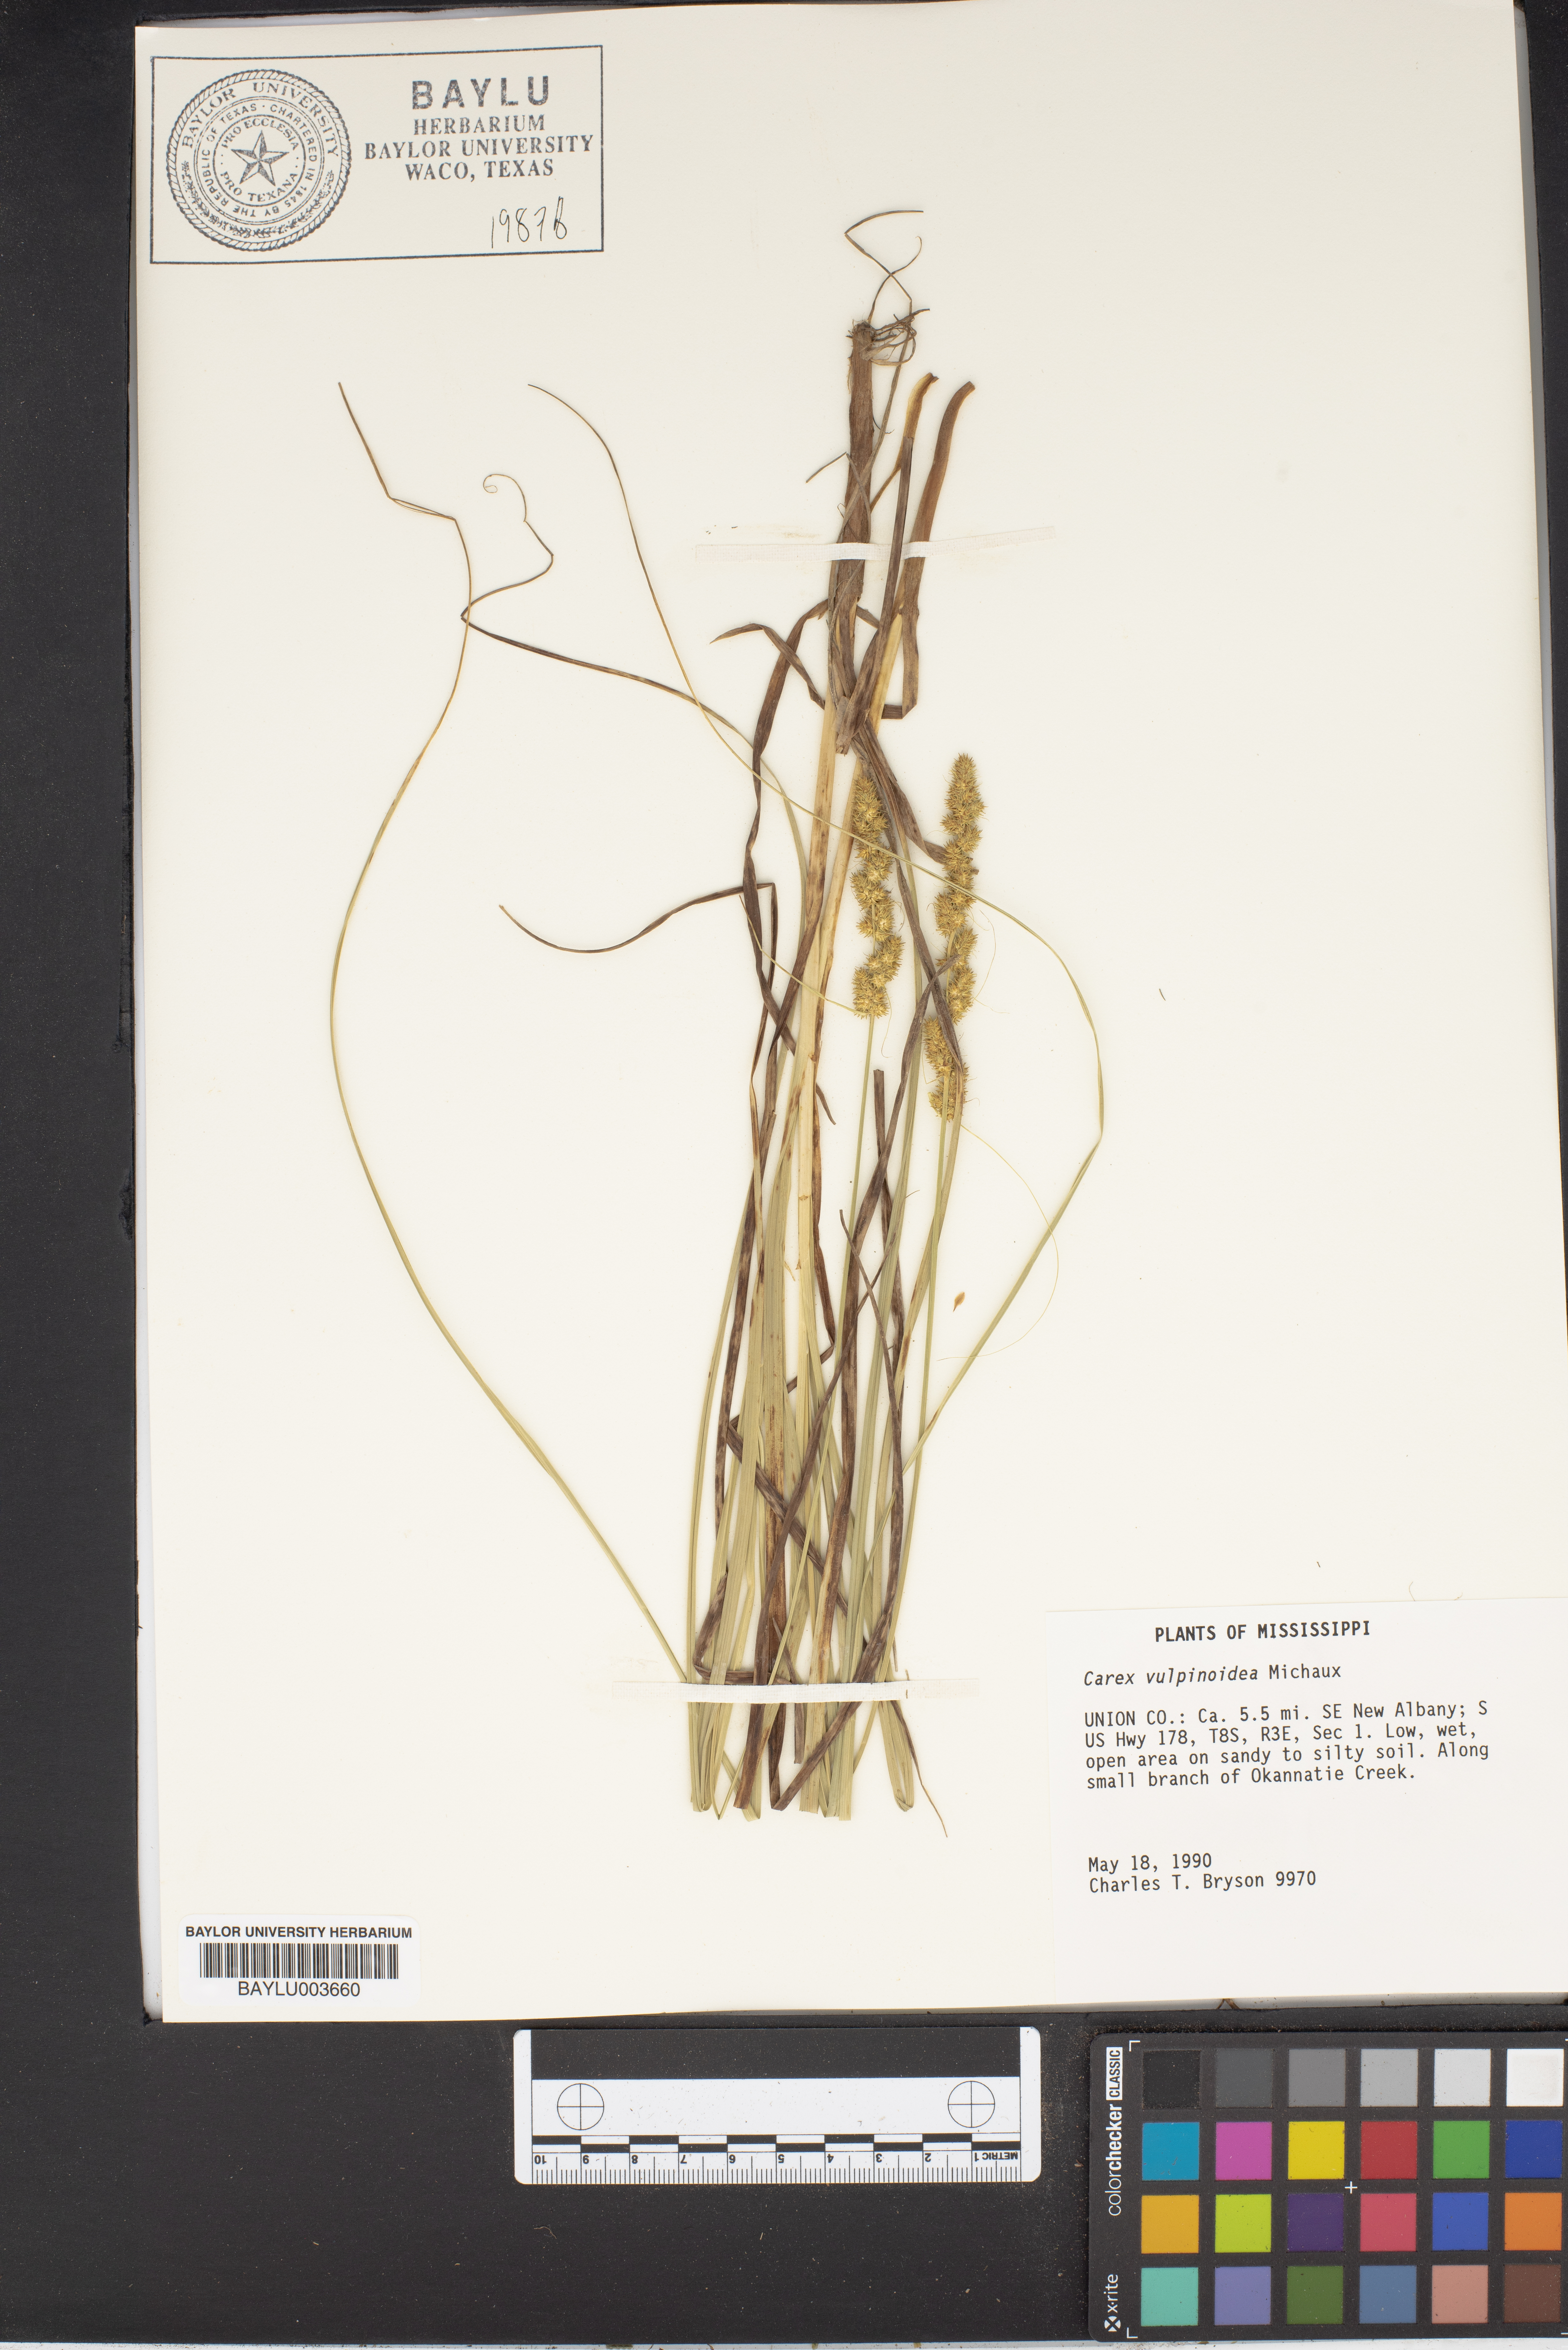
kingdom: Plantae
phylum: Tracheophyta
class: Liliopsida
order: Poales
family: Cyperaceae
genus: Carex
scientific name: Carex vulpinoidea
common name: American fox-sedge
